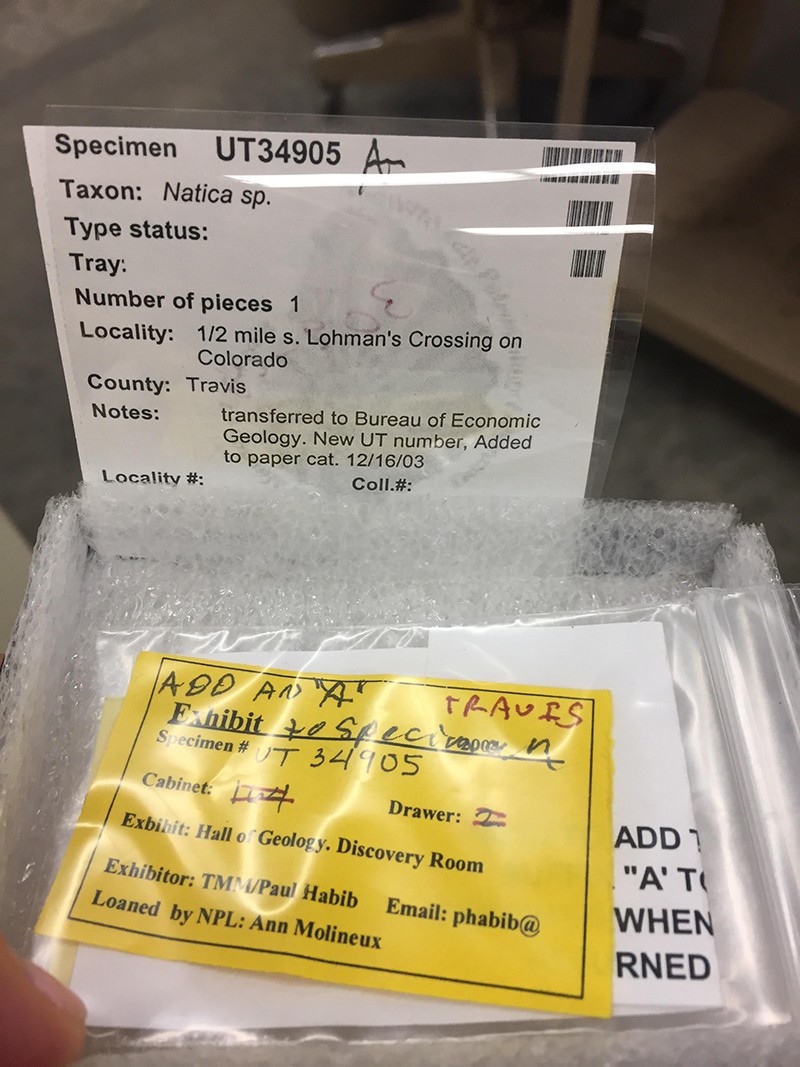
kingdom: Animalia
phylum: Mollusca
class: Gastropoda
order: Littorinimorpha
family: Naticidae
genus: Natica
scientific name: Natica
